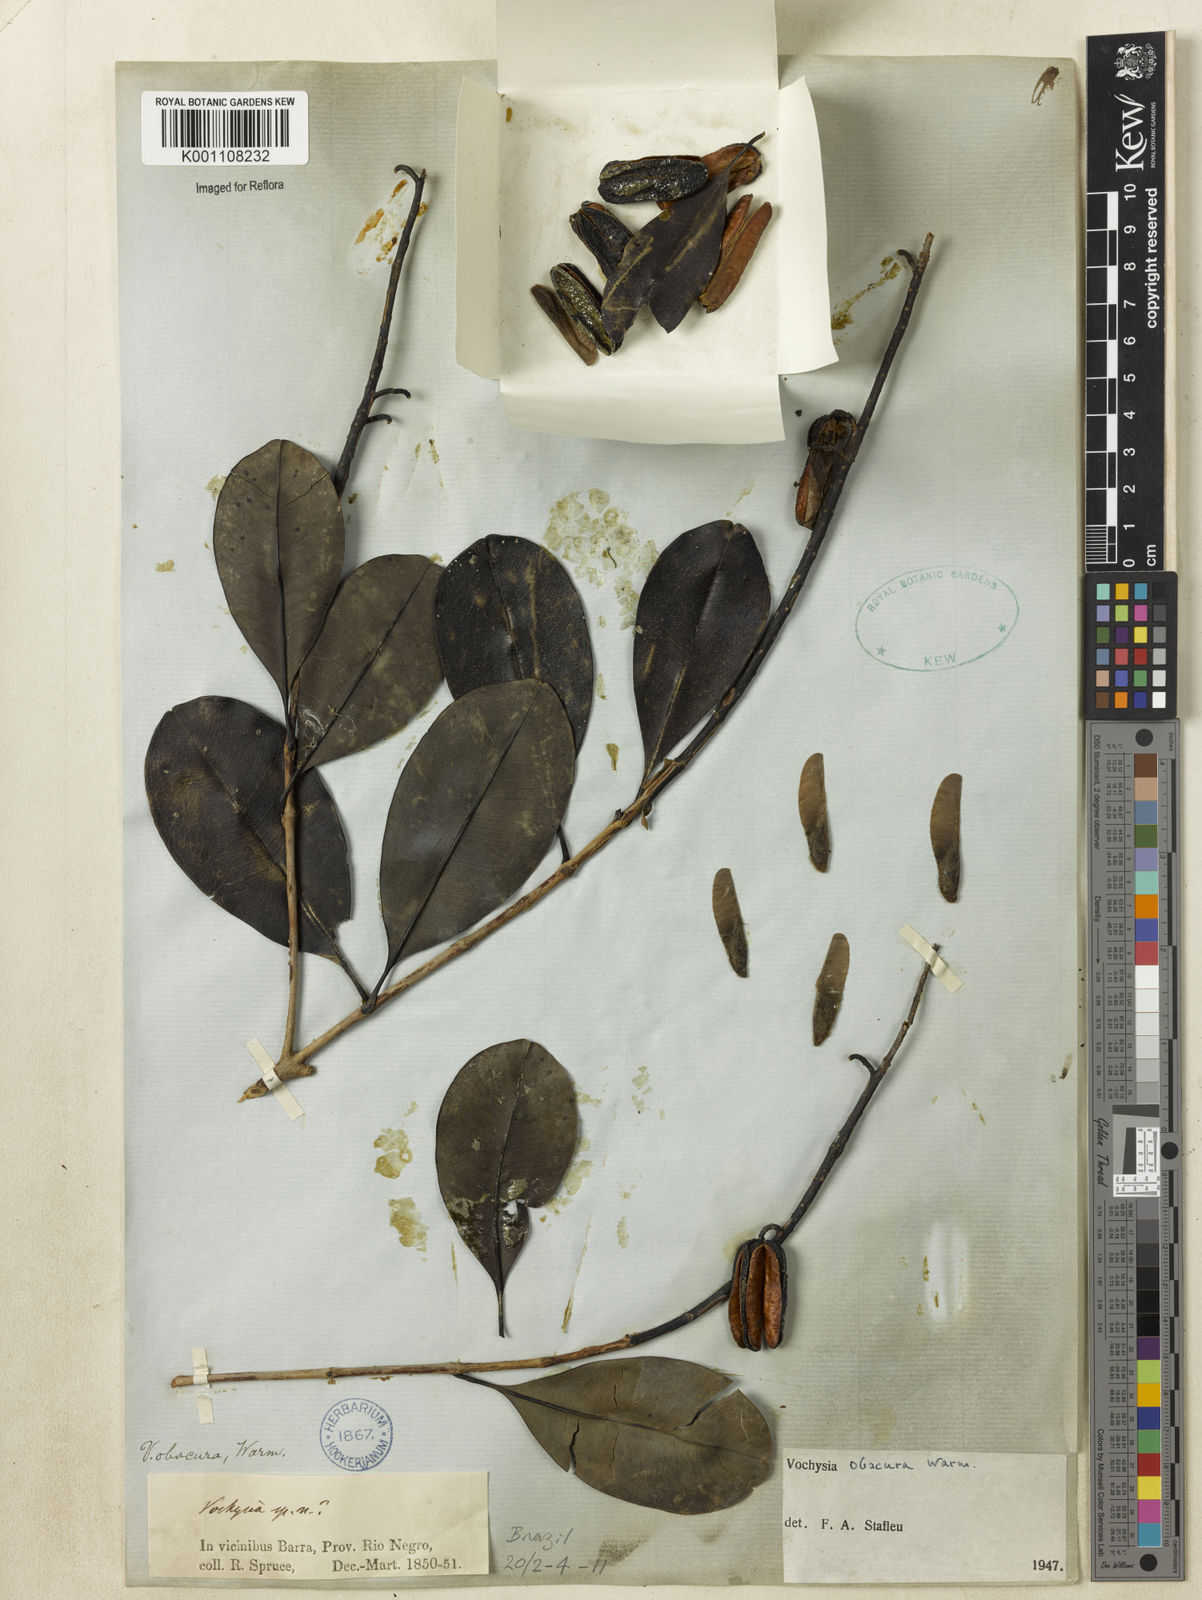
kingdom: Plantae
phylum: Tracheophyta
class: Magnoliopsida
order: Myrtales
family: Vochysiaceae
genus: Vochysia
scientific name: Vochysia obscura
